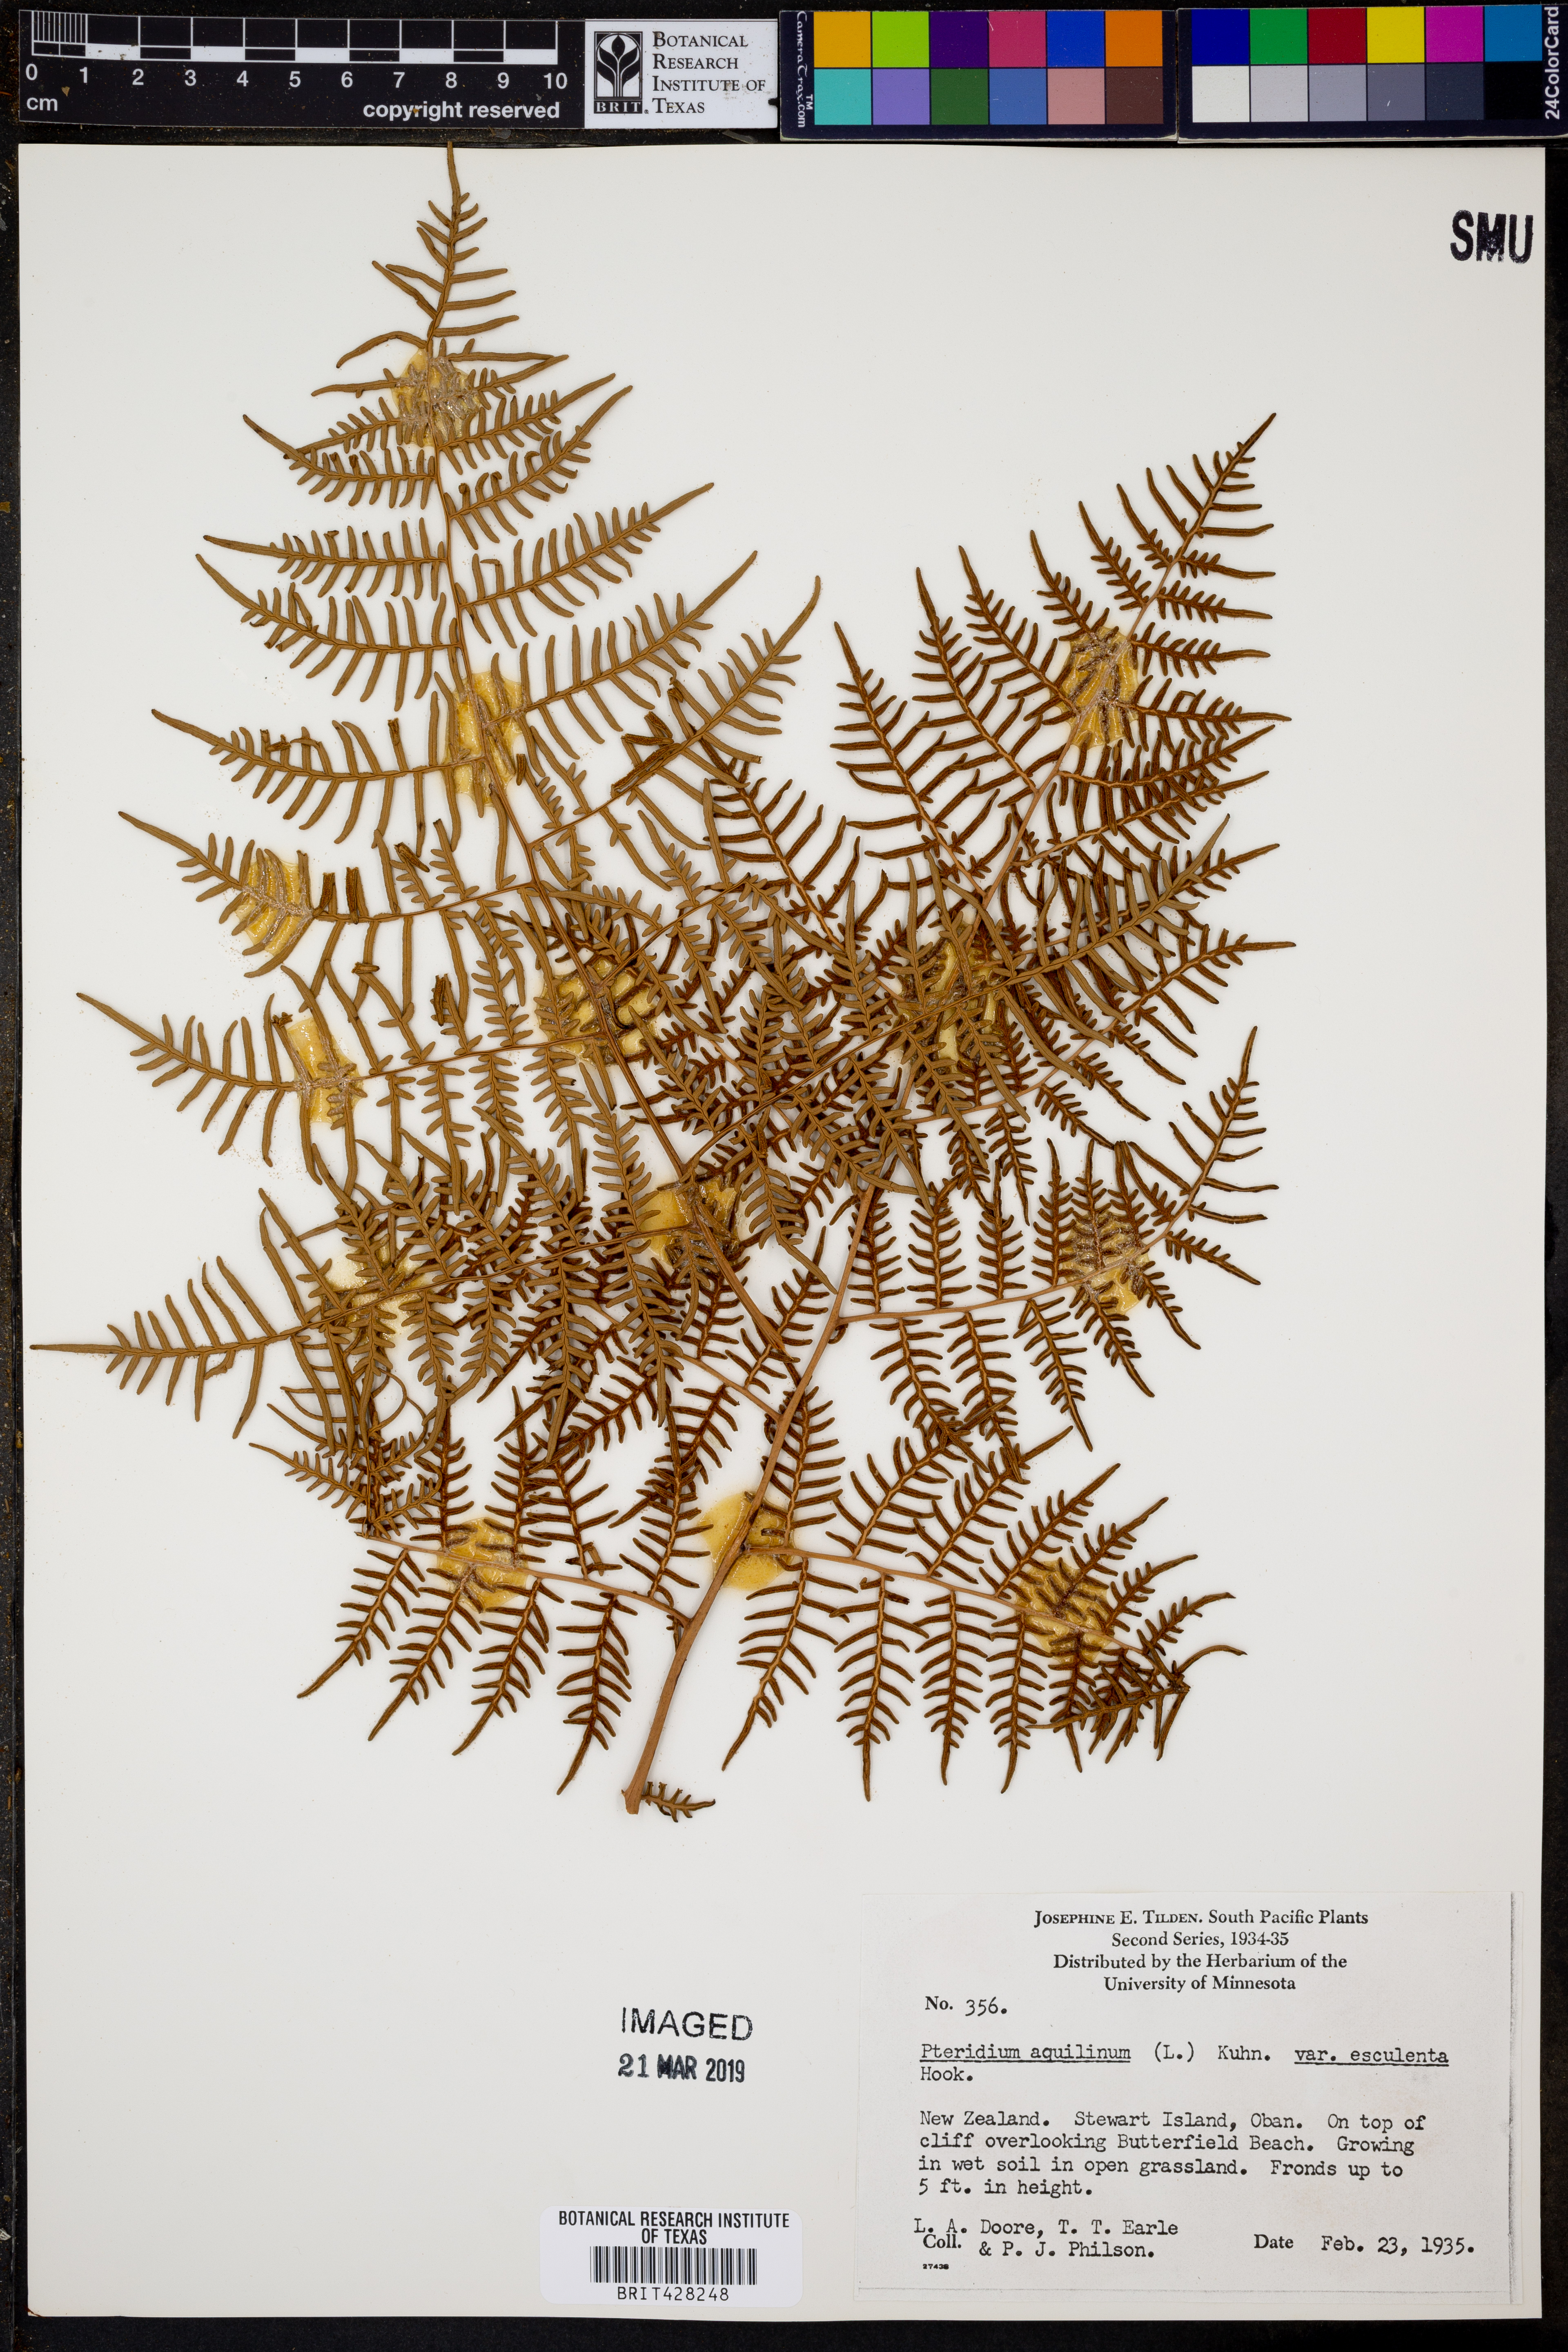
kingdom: Plantae
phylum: Tracheophyta
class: Polypodiopsida
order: Polypodiales
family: Dennstaedtiaceae
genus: Pteridium
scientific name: Pteridium esculentum
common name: Bracken fern
